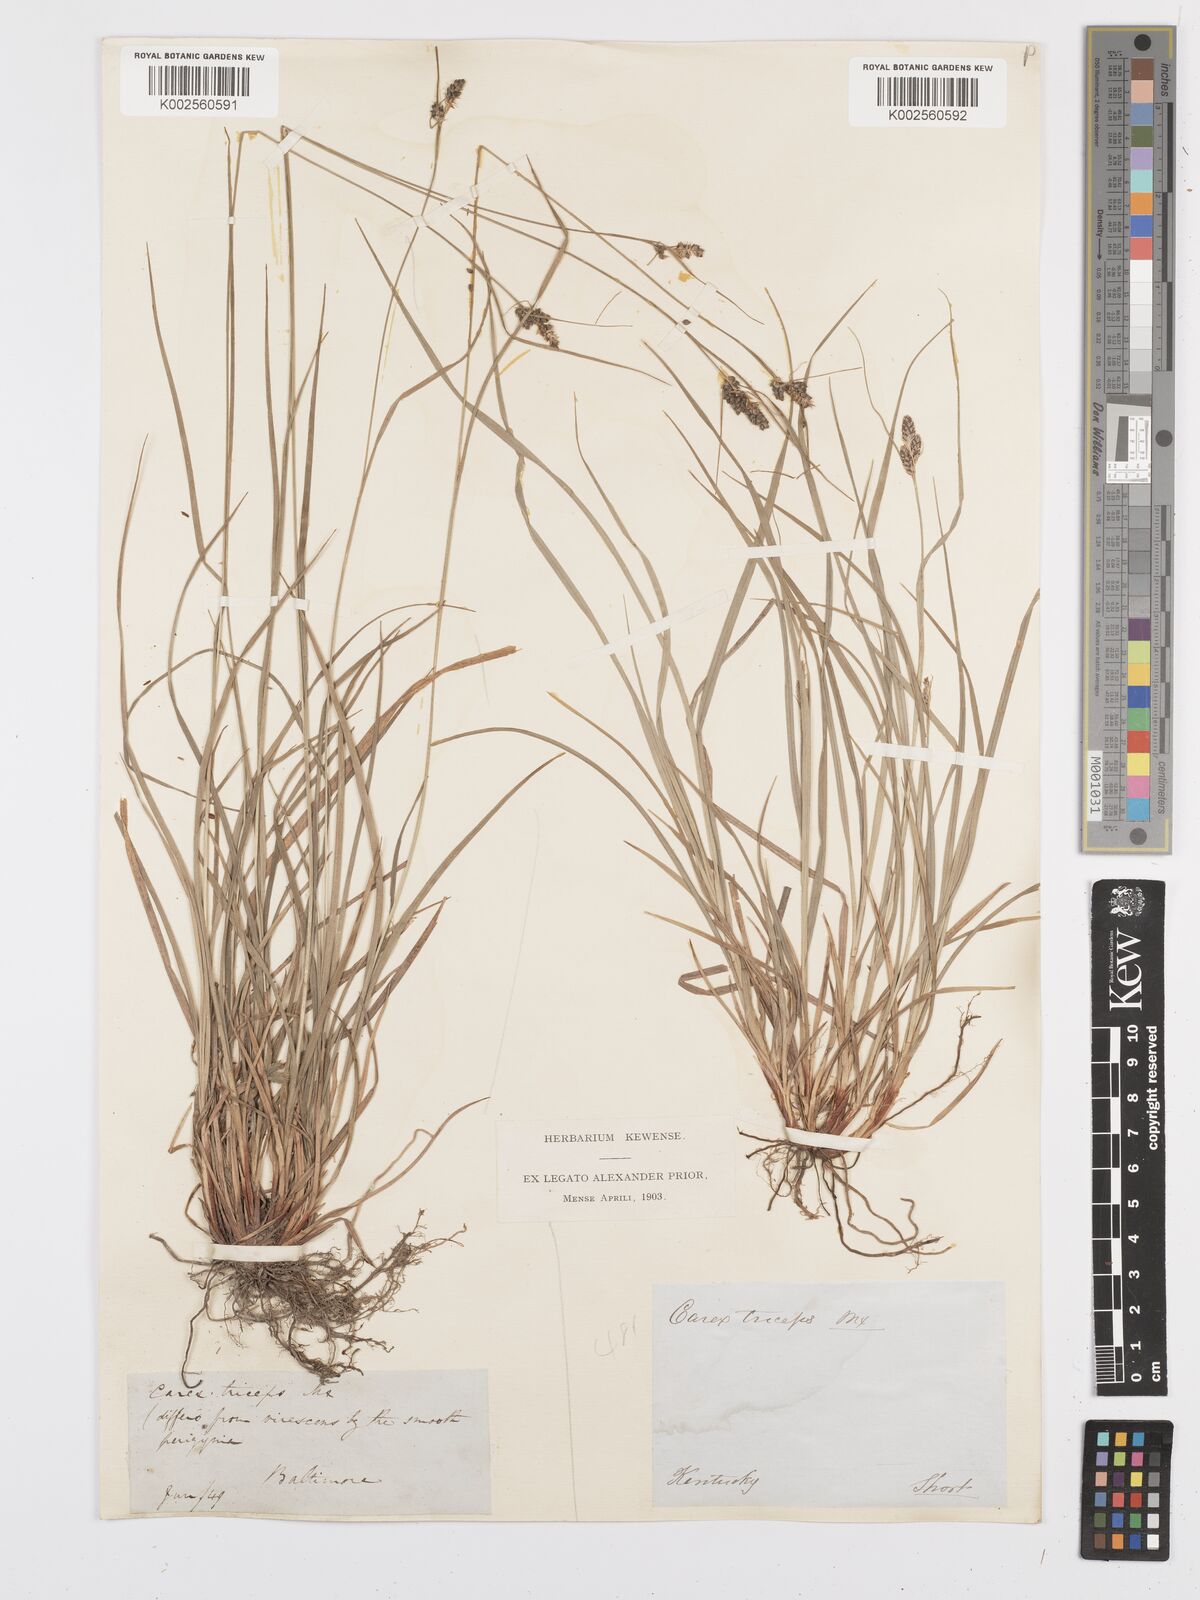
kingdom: Plantae
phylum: Tracheophyta
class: Liliopsida
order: Poales
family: Cyperaceae
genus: Carex
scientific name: Carex complanata
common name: Hirsute sedge
